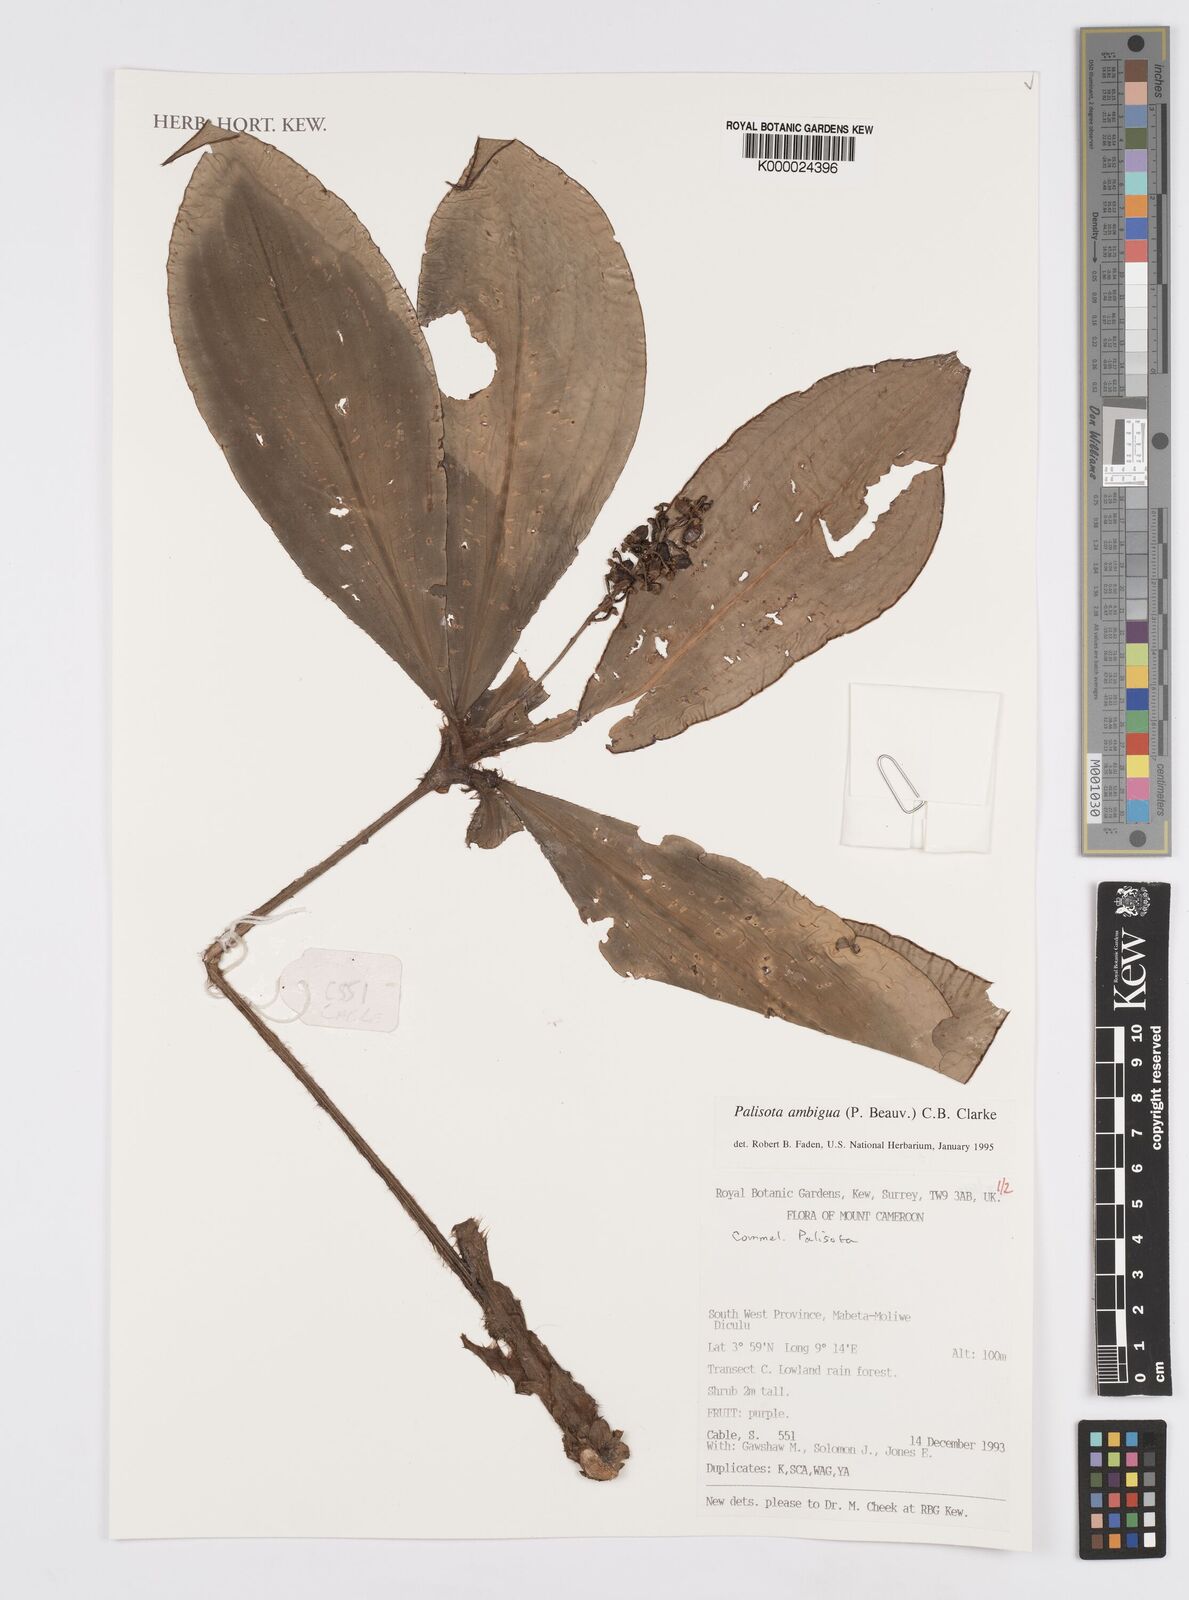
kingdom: Plantae
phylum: Tracheophyta
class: Liliopsida
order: Commelinales
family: Commelinaceae
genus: Palisota
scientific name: Palisota ambigua
